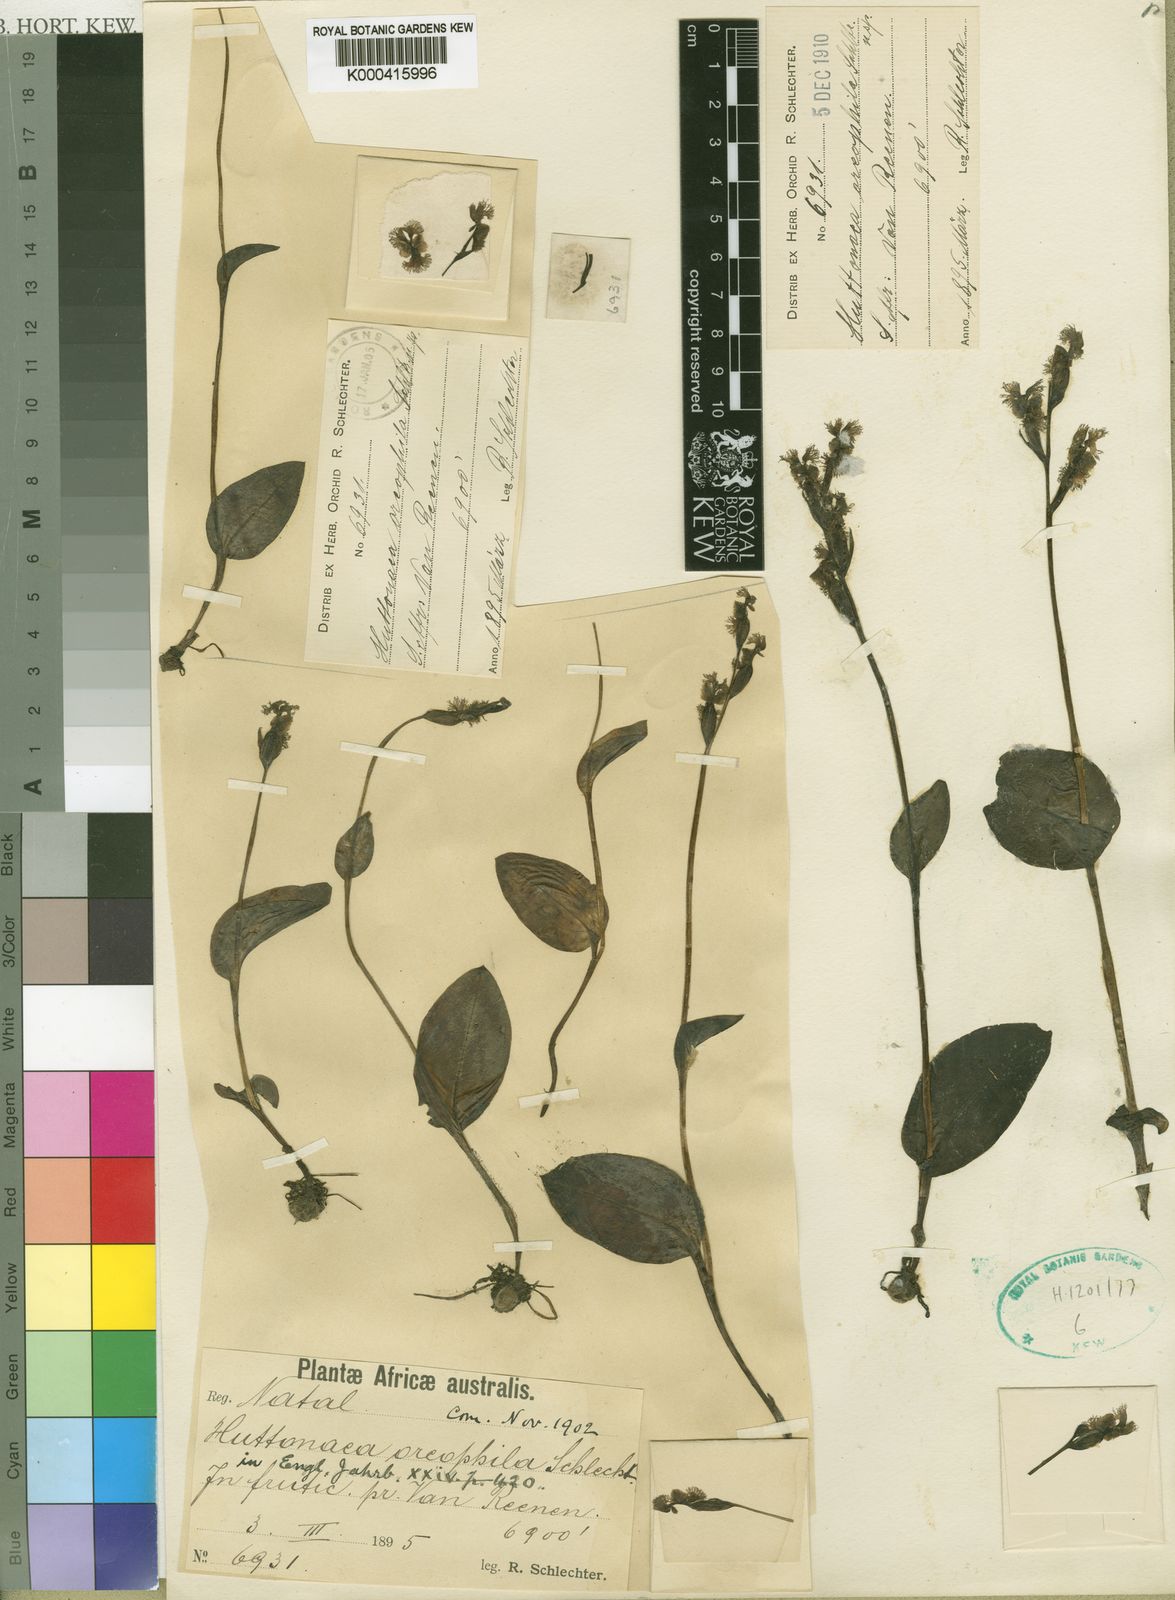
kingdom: Plantae
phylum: Tracheophyta
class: Liliopsida
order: Asparagales
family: Orchidaceae
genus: Huttonaea
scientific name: Huttonaea oreophila
